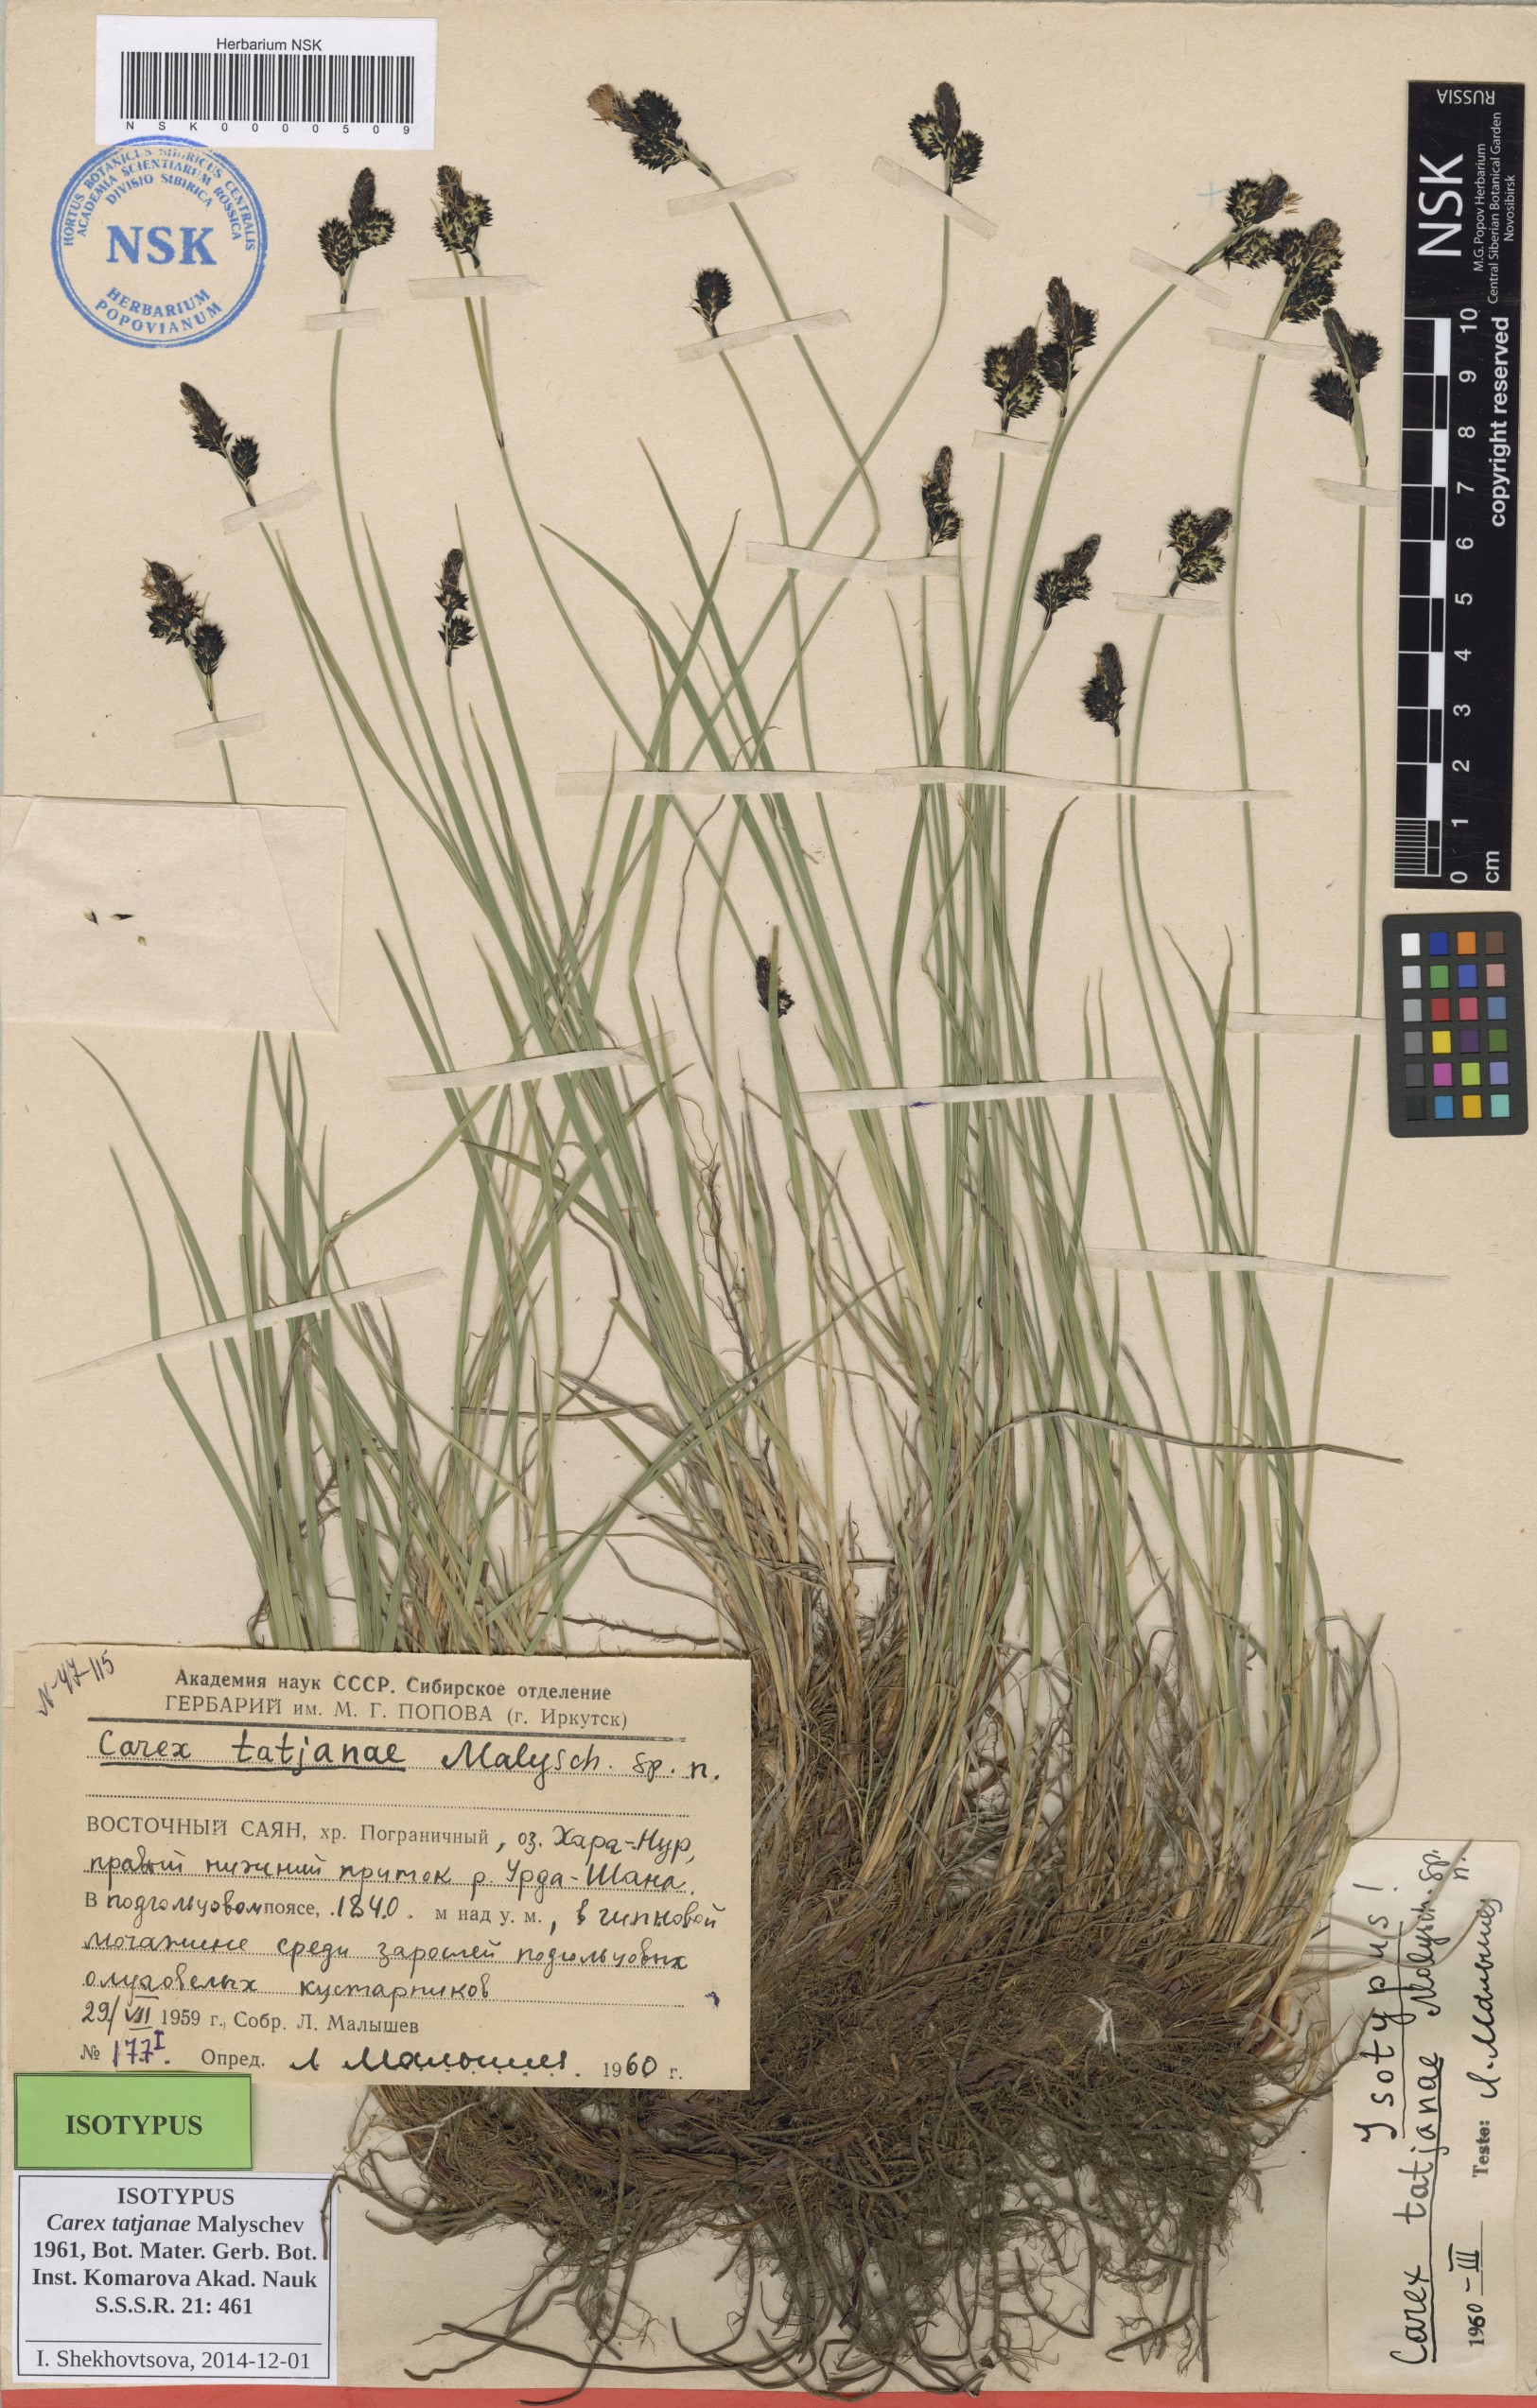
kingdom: Plantae
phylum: Tracheophyta
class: Liliopsida
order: Poales
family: Cyperaceae
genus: Carex
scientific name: Carex tatjanae
